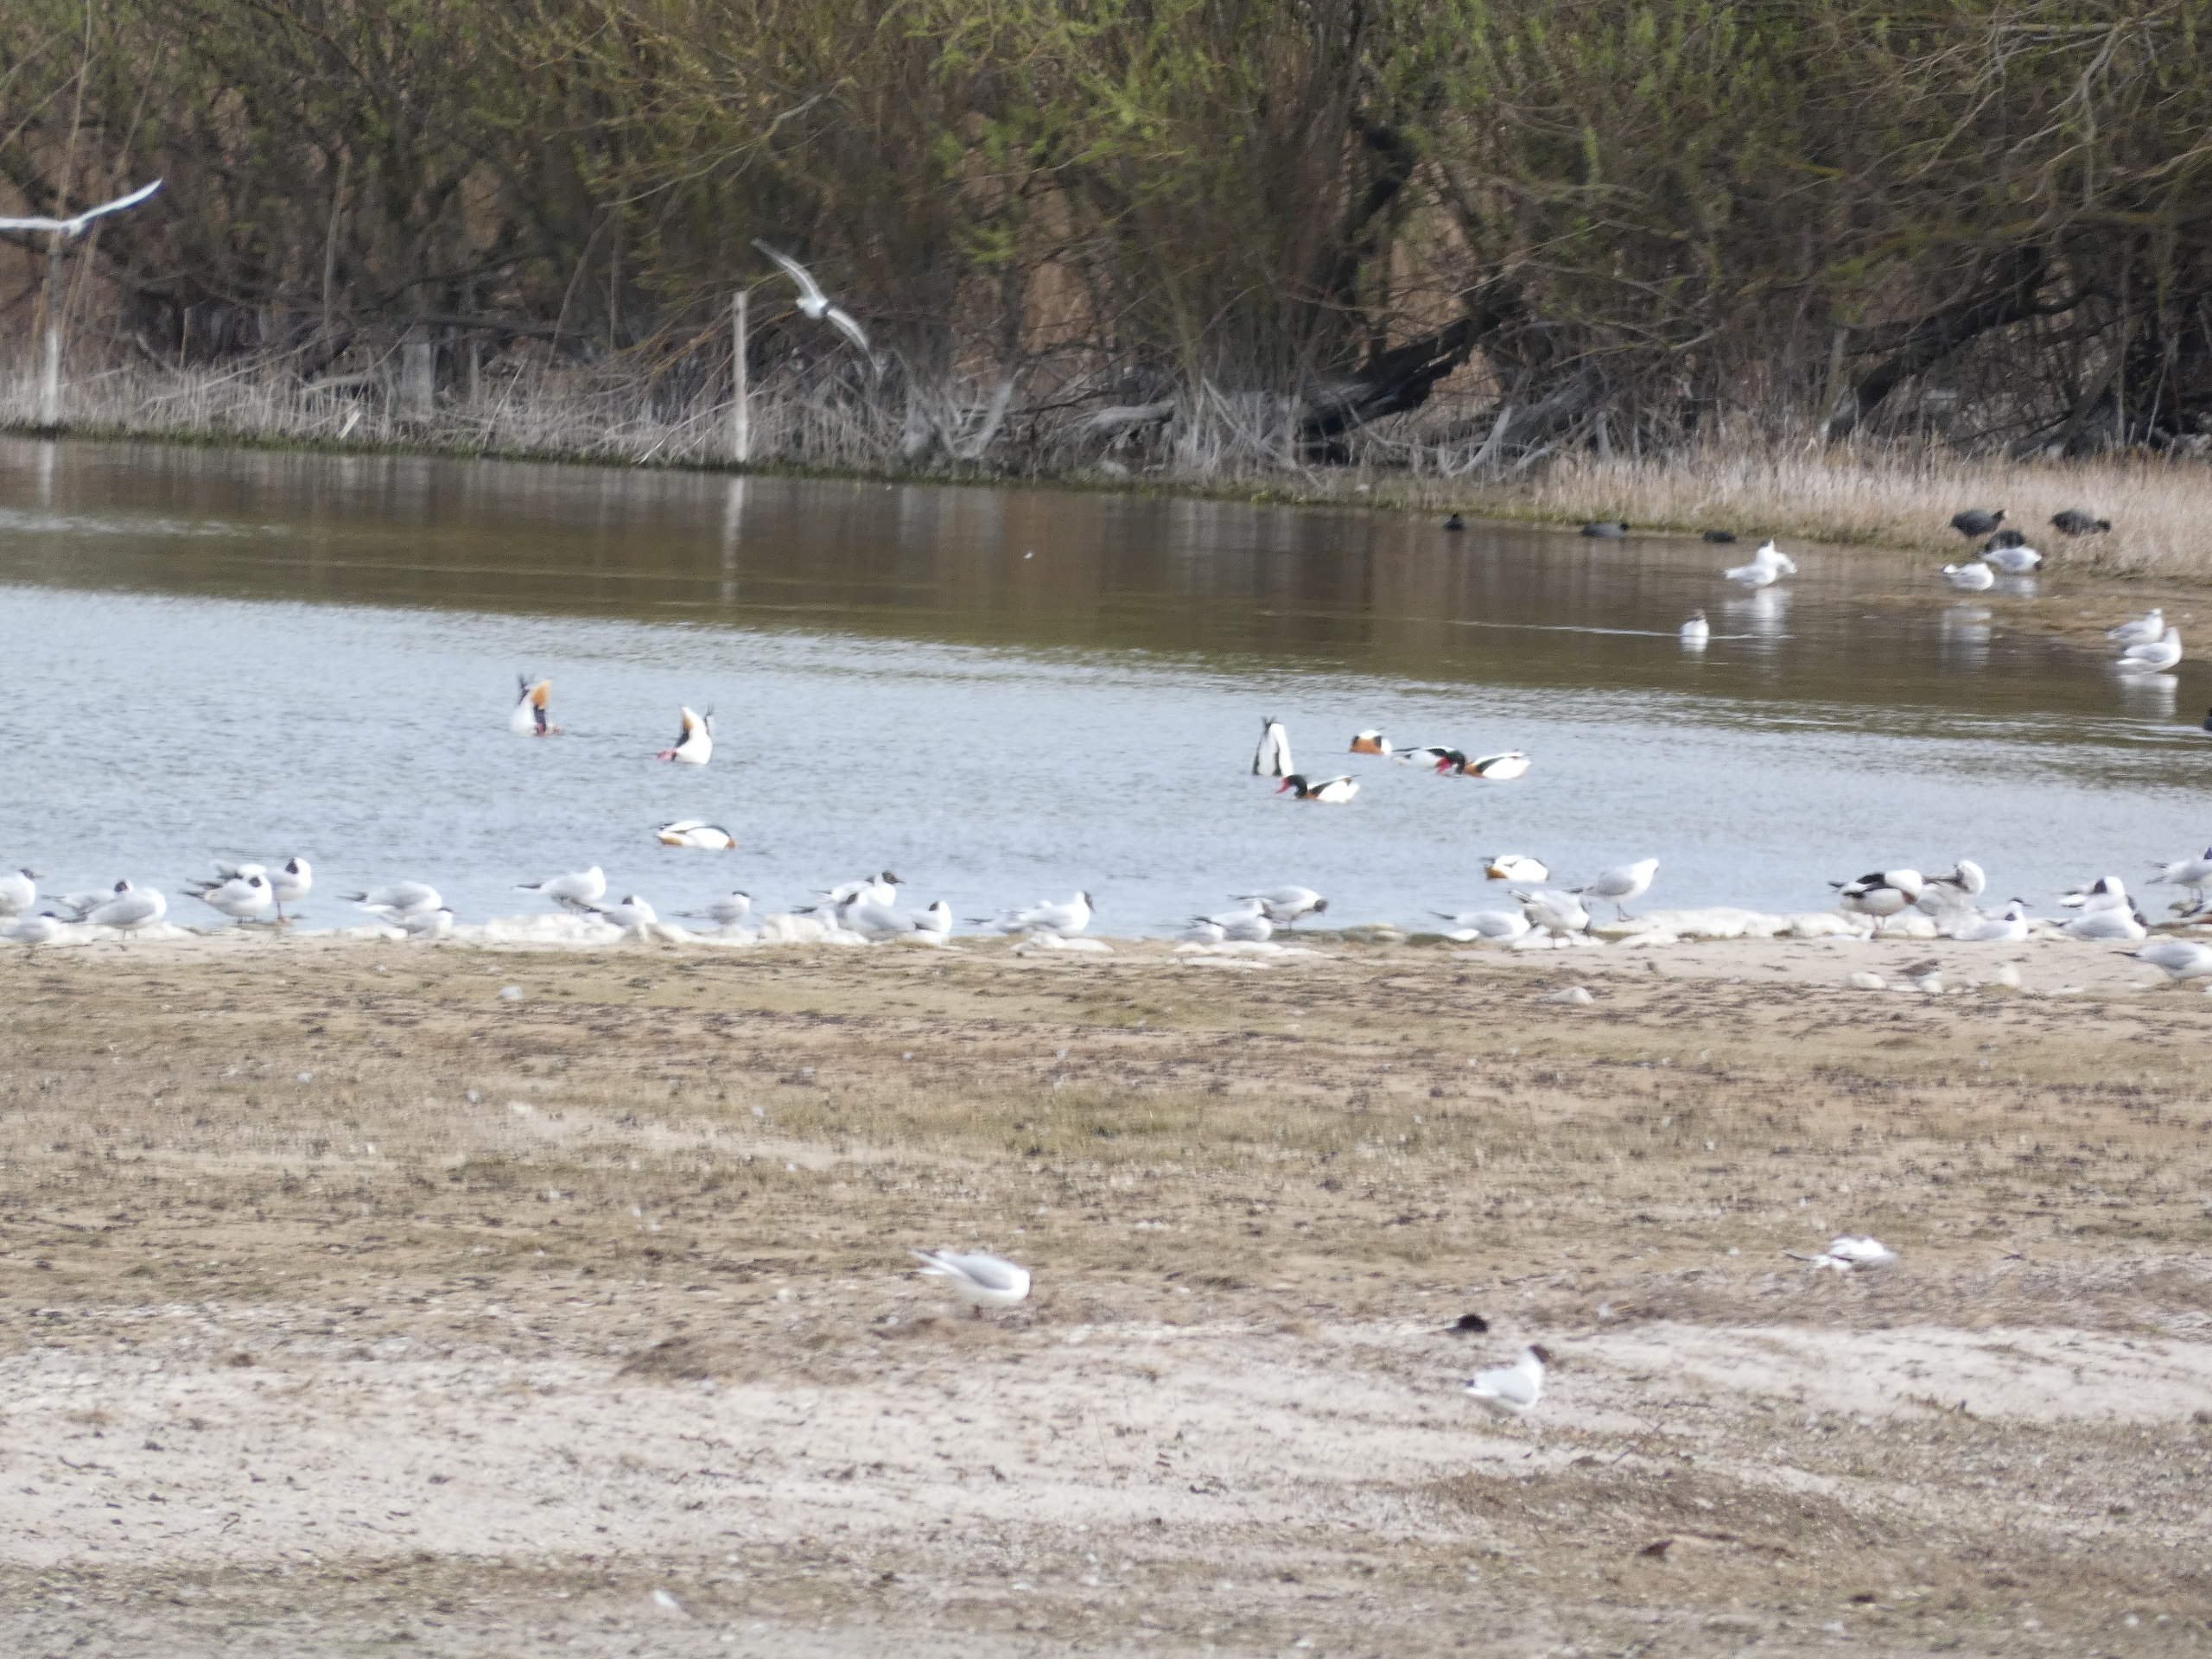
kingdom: Animalia
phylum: Chordata
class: Aves
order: Gruiformes
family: Rallidae
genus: Fulica
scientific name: Fulica atra
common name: Blishøne
